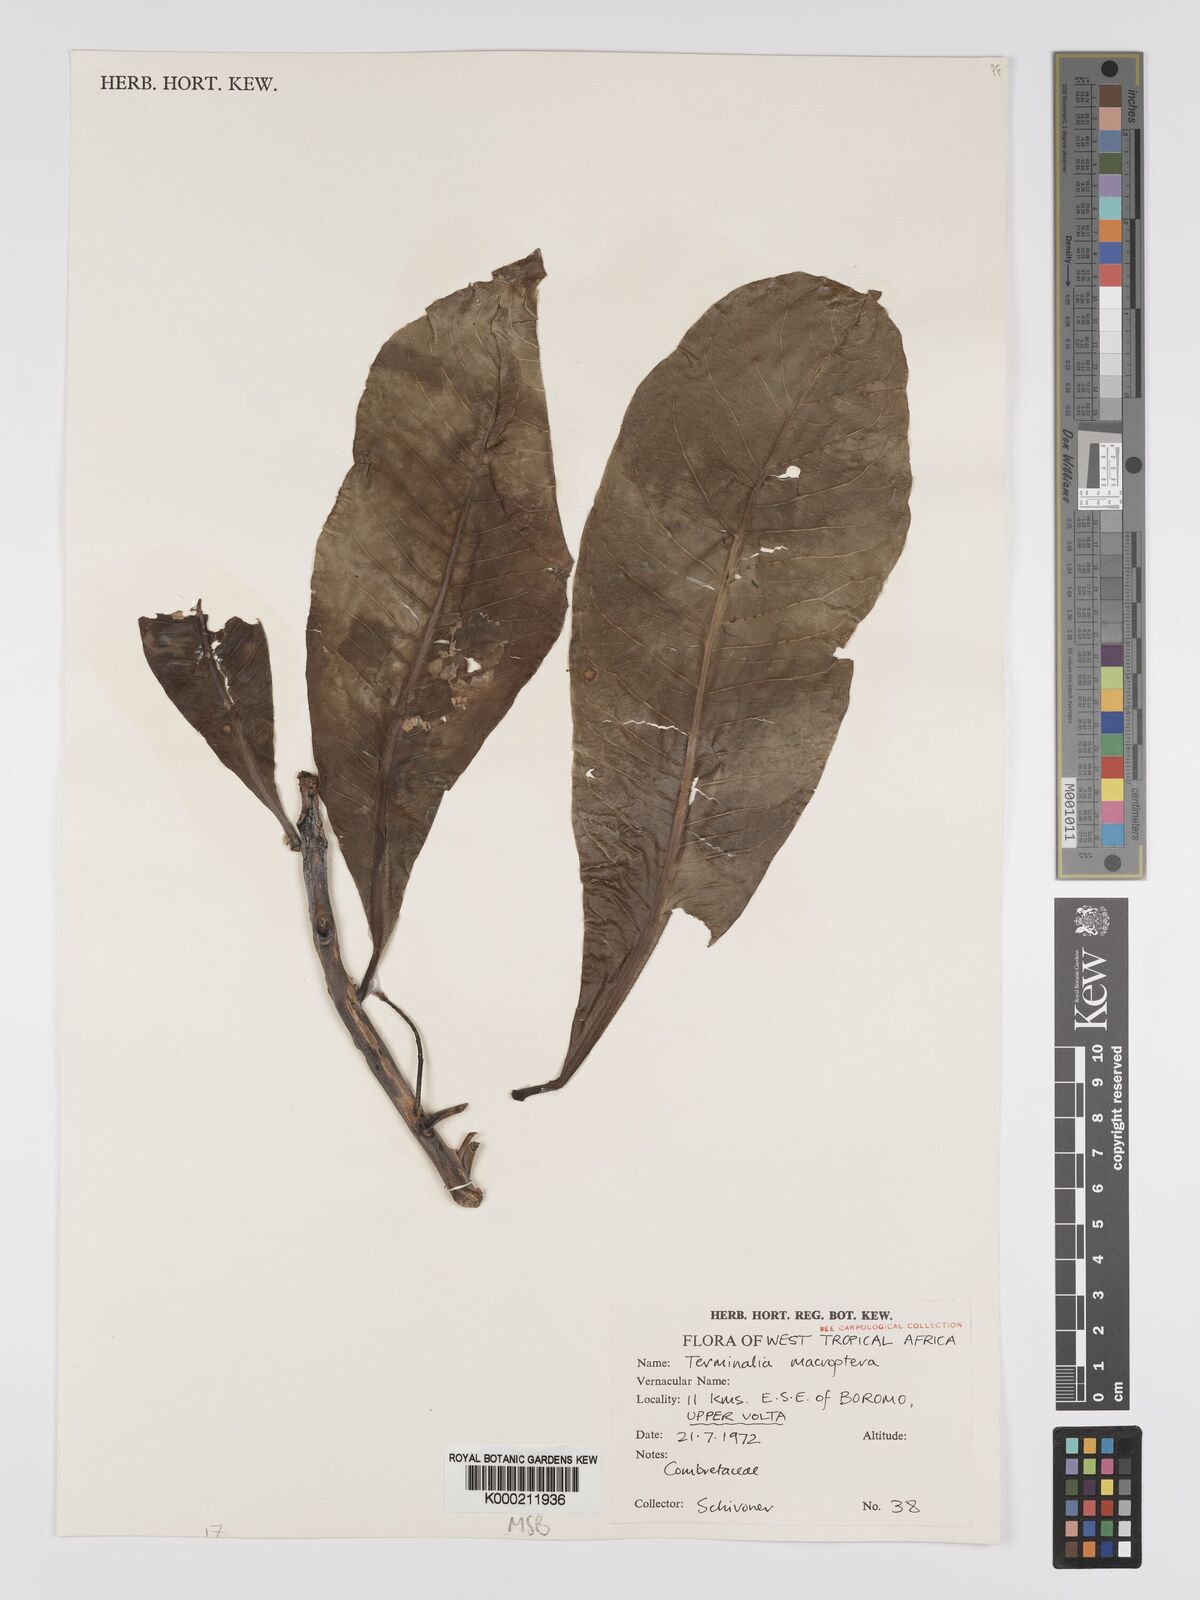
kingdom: Plantae
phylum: Tracheophyta
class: Magnoliopsida
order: Myrtales
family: Combretaceae
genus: Terminalia
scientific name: Terminalia macroptera
